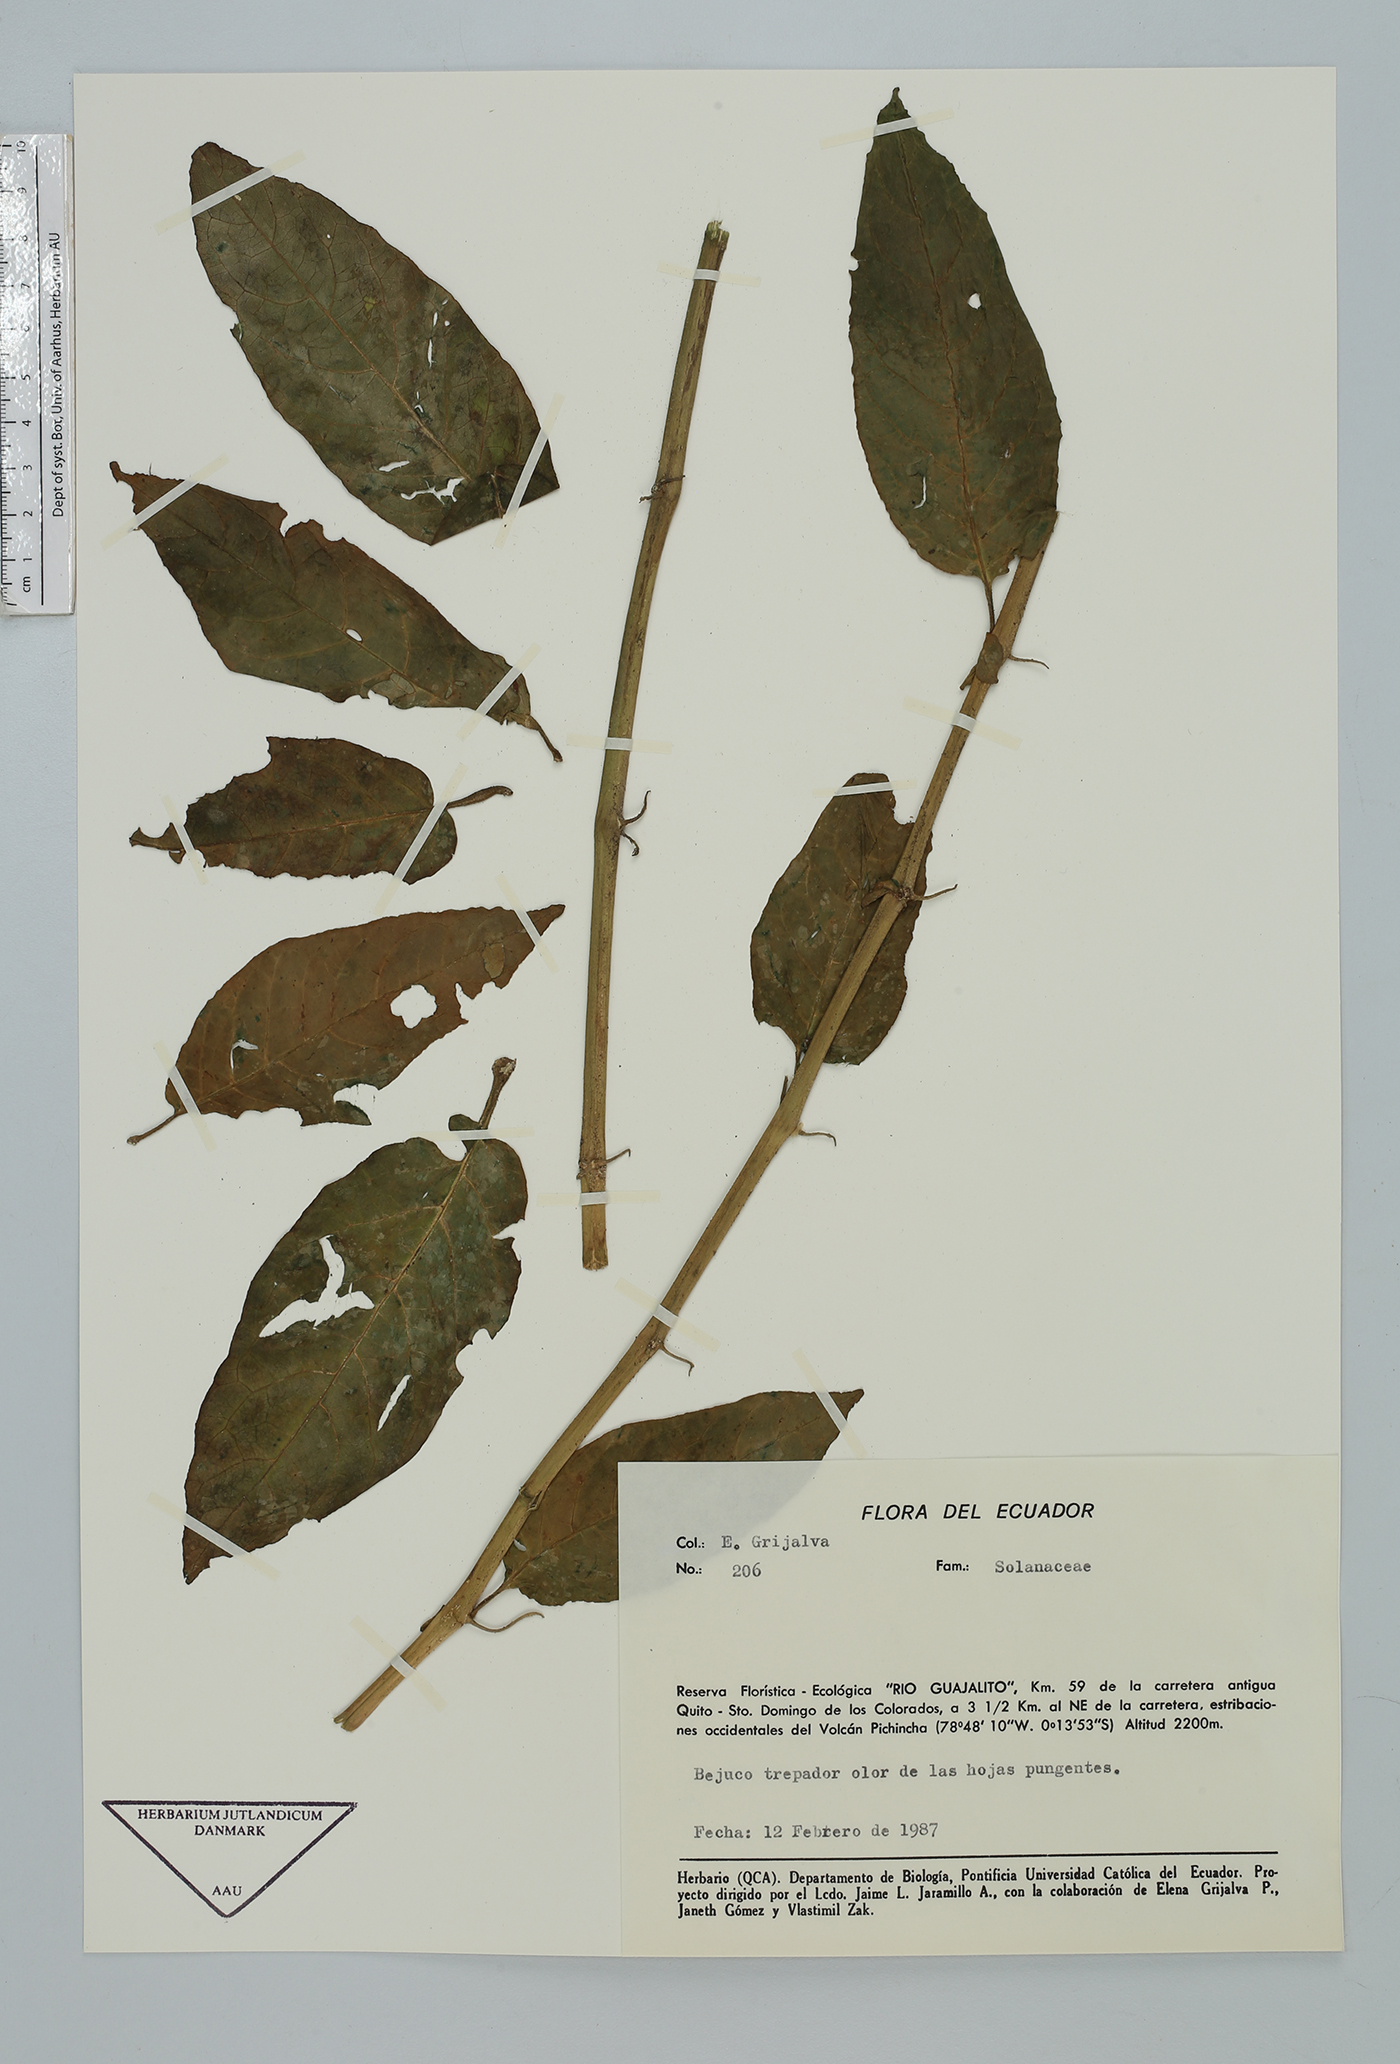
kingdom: Plantae
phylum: Tracheophyta
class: Magnoliopsida
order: Solanales
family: Solanaceae
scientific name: Solanaceae
